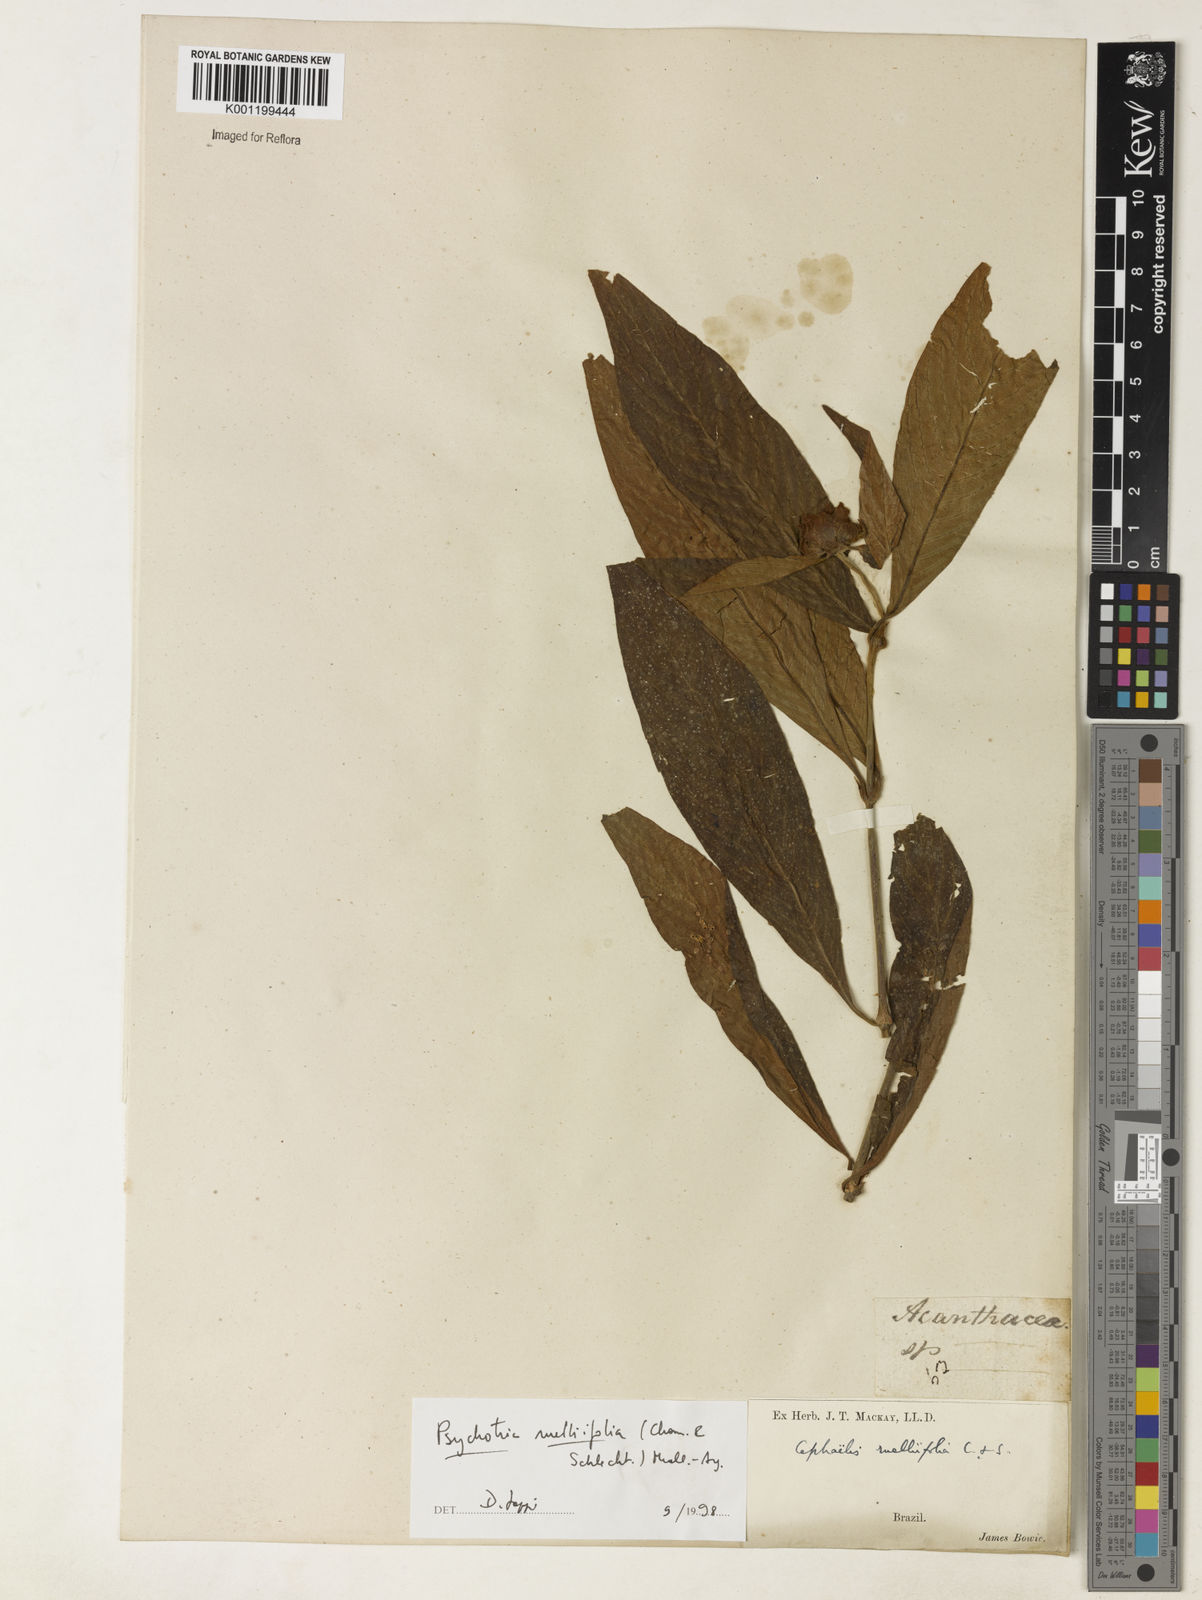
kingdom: Plantae
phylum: Tracheophyta
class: Magnoliopsida
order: Gentianales
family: Rubiaceae
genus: Psychotria
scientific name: Psychotria
